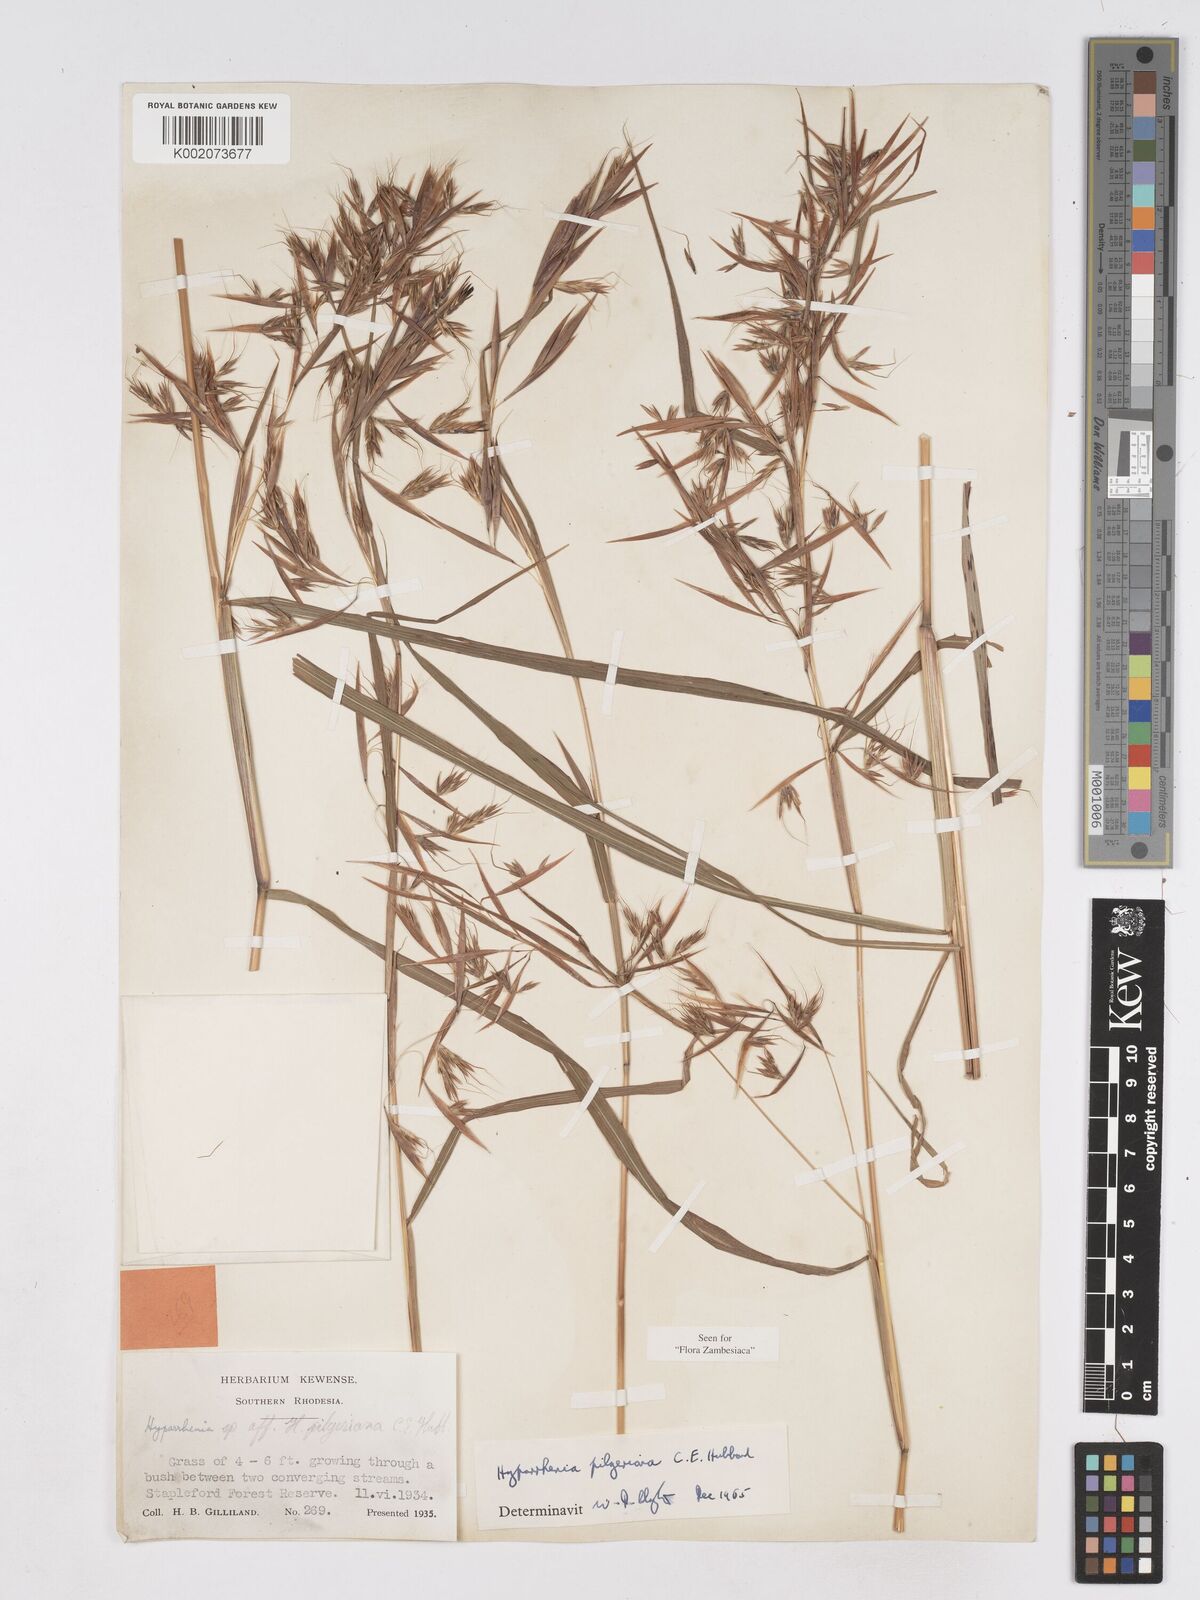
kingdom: Plantae
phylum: Tracheophyta
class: Liliopsida
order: Poales
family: Poaceae
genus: Hyparrhenia
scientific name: Hyparrhenia pilgeriana
